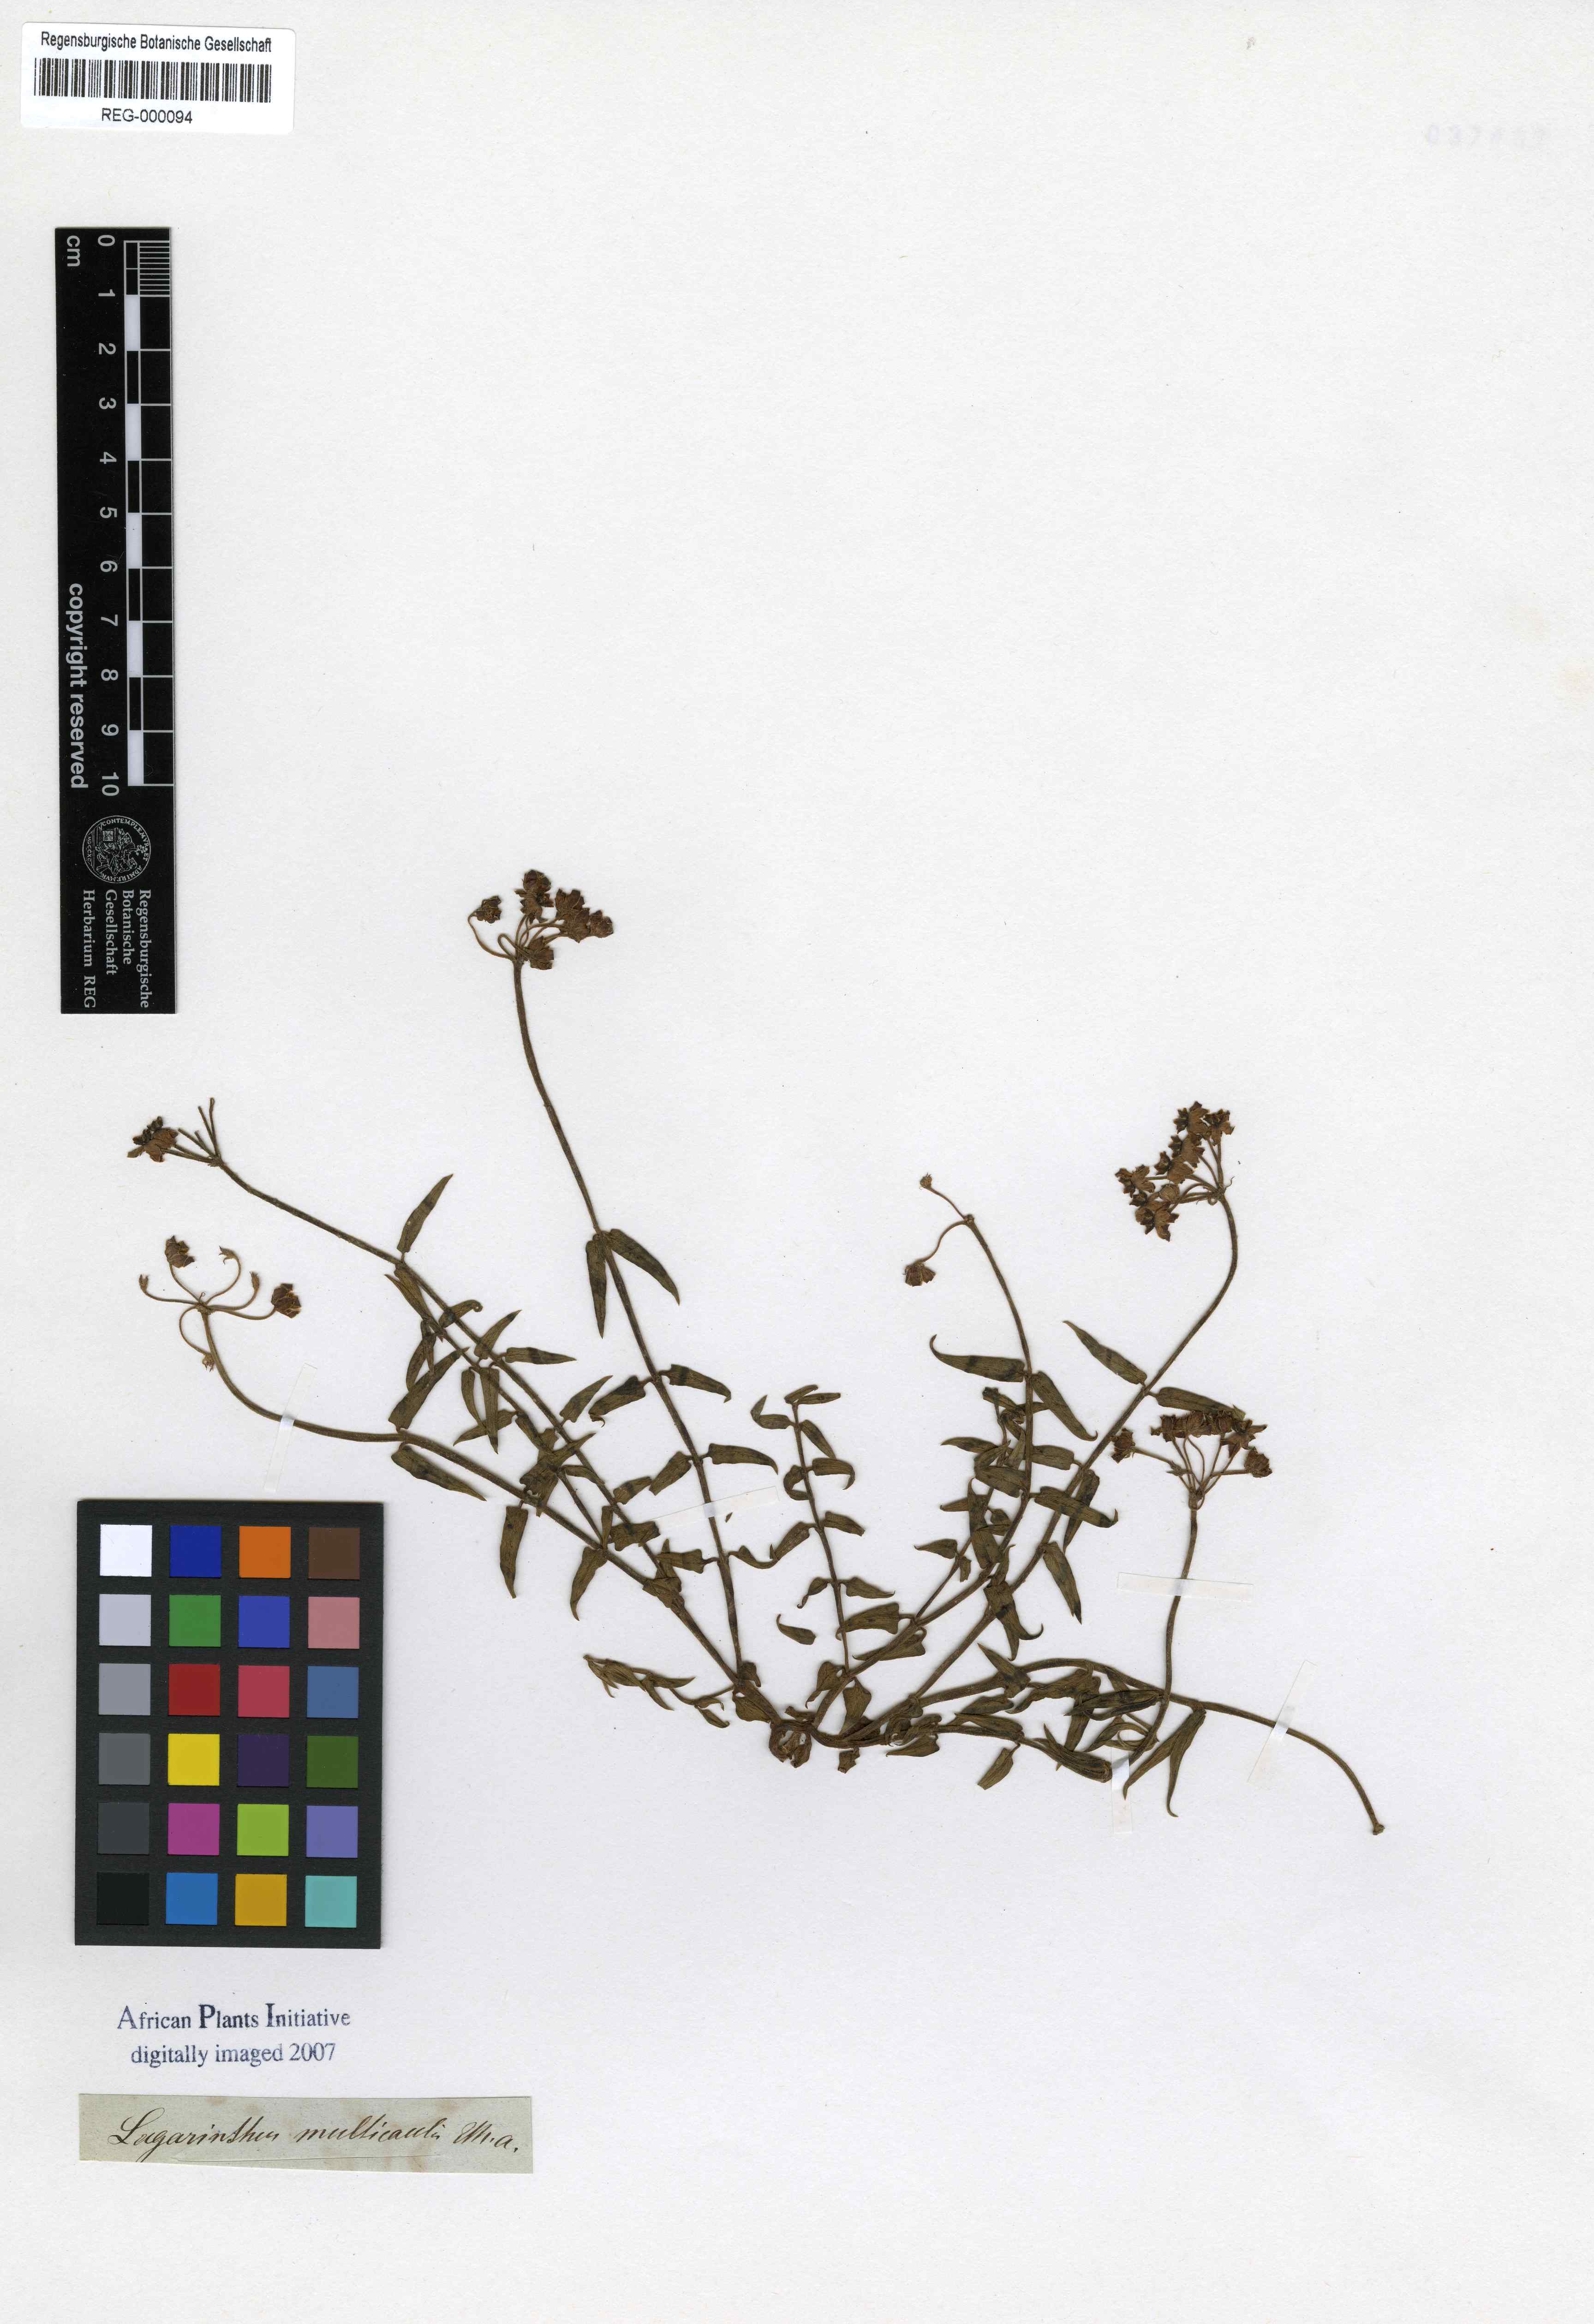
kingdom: Plantae
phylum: Tracheophyta
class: Magnoliopsida
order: Gentianales
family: Apocynaceae
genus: Asclepias
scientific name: Asclepias depressa
